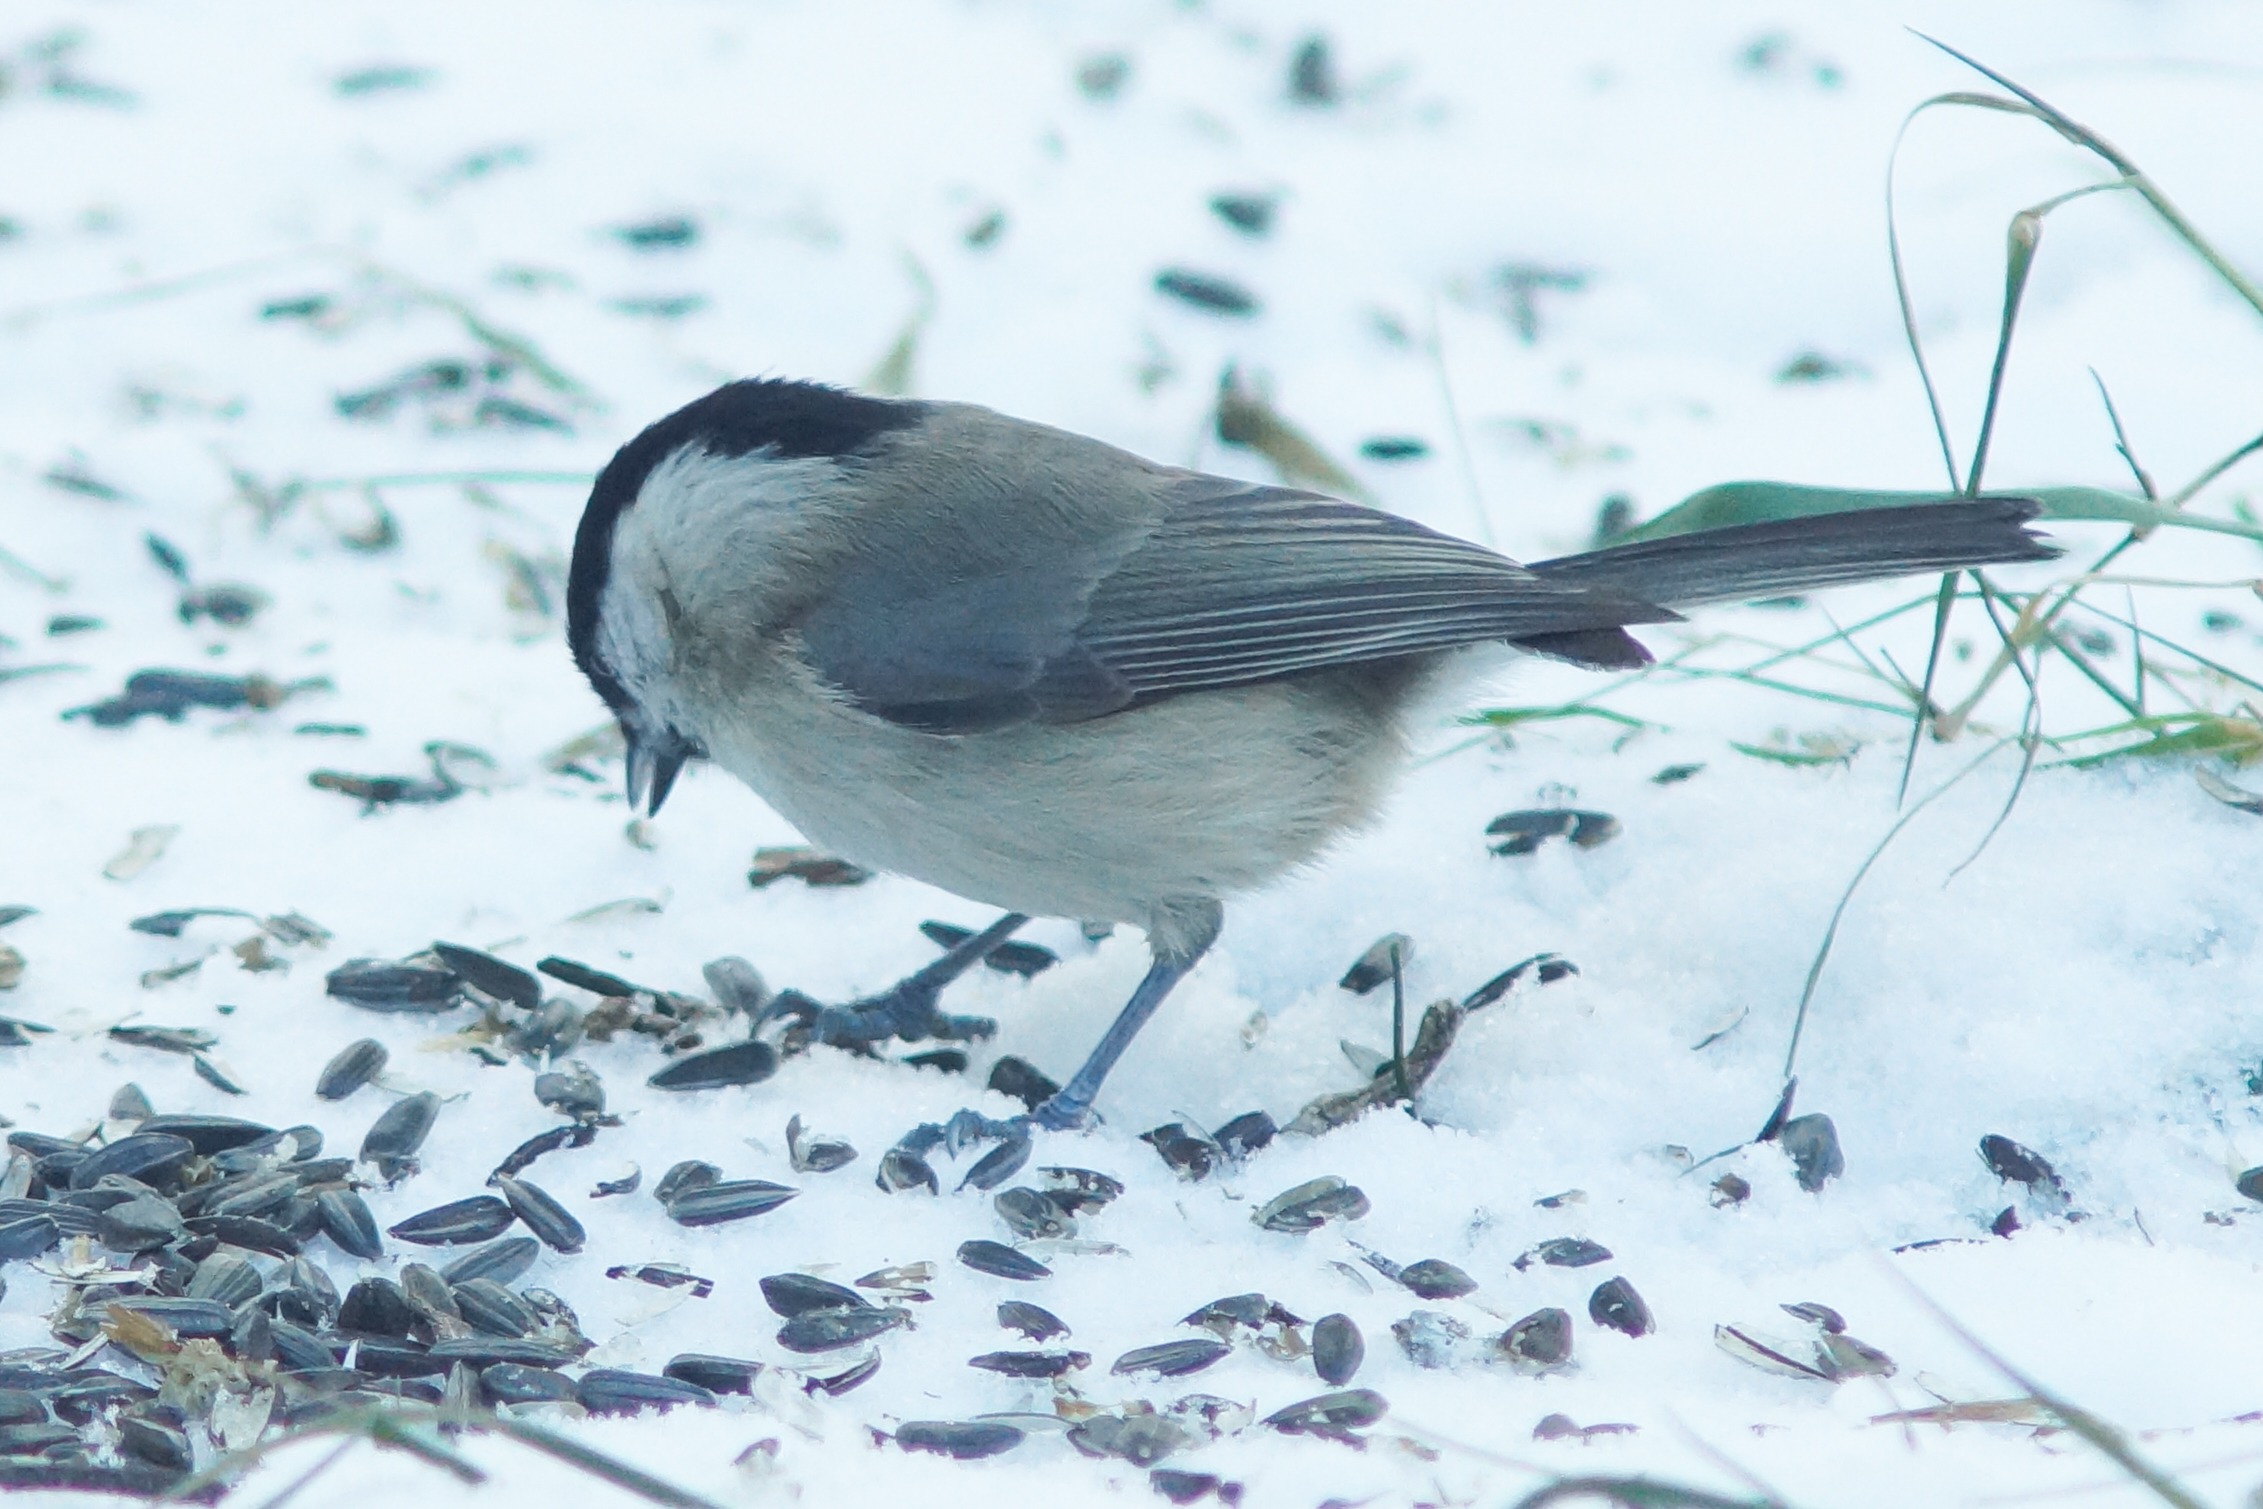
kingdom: Animalia
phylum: Chordata
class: Aves
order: Passeriformes
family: Paridae
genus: Poecile
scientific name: Poecile palustris
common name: Sumpmejse
